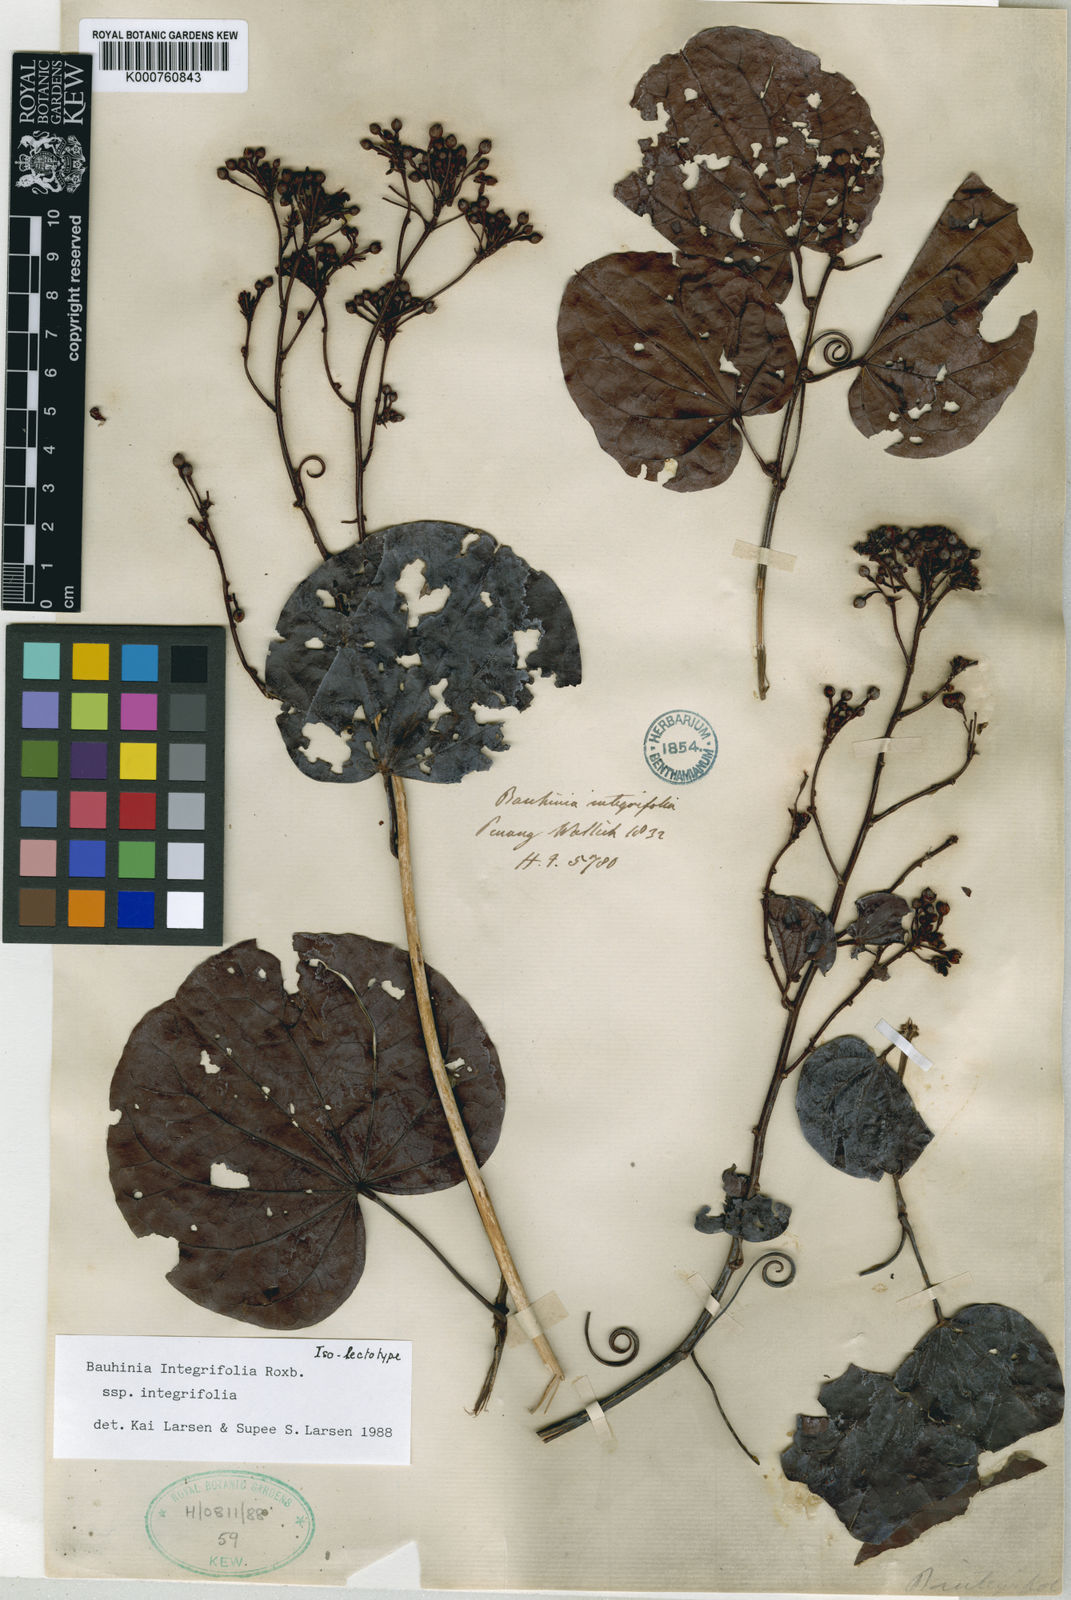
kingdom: Plantae
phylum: Tracheophyta
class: Magnoliopsida
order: Fabales
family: Fabaceae
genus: Phanera
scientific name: Phanera integrifolia
